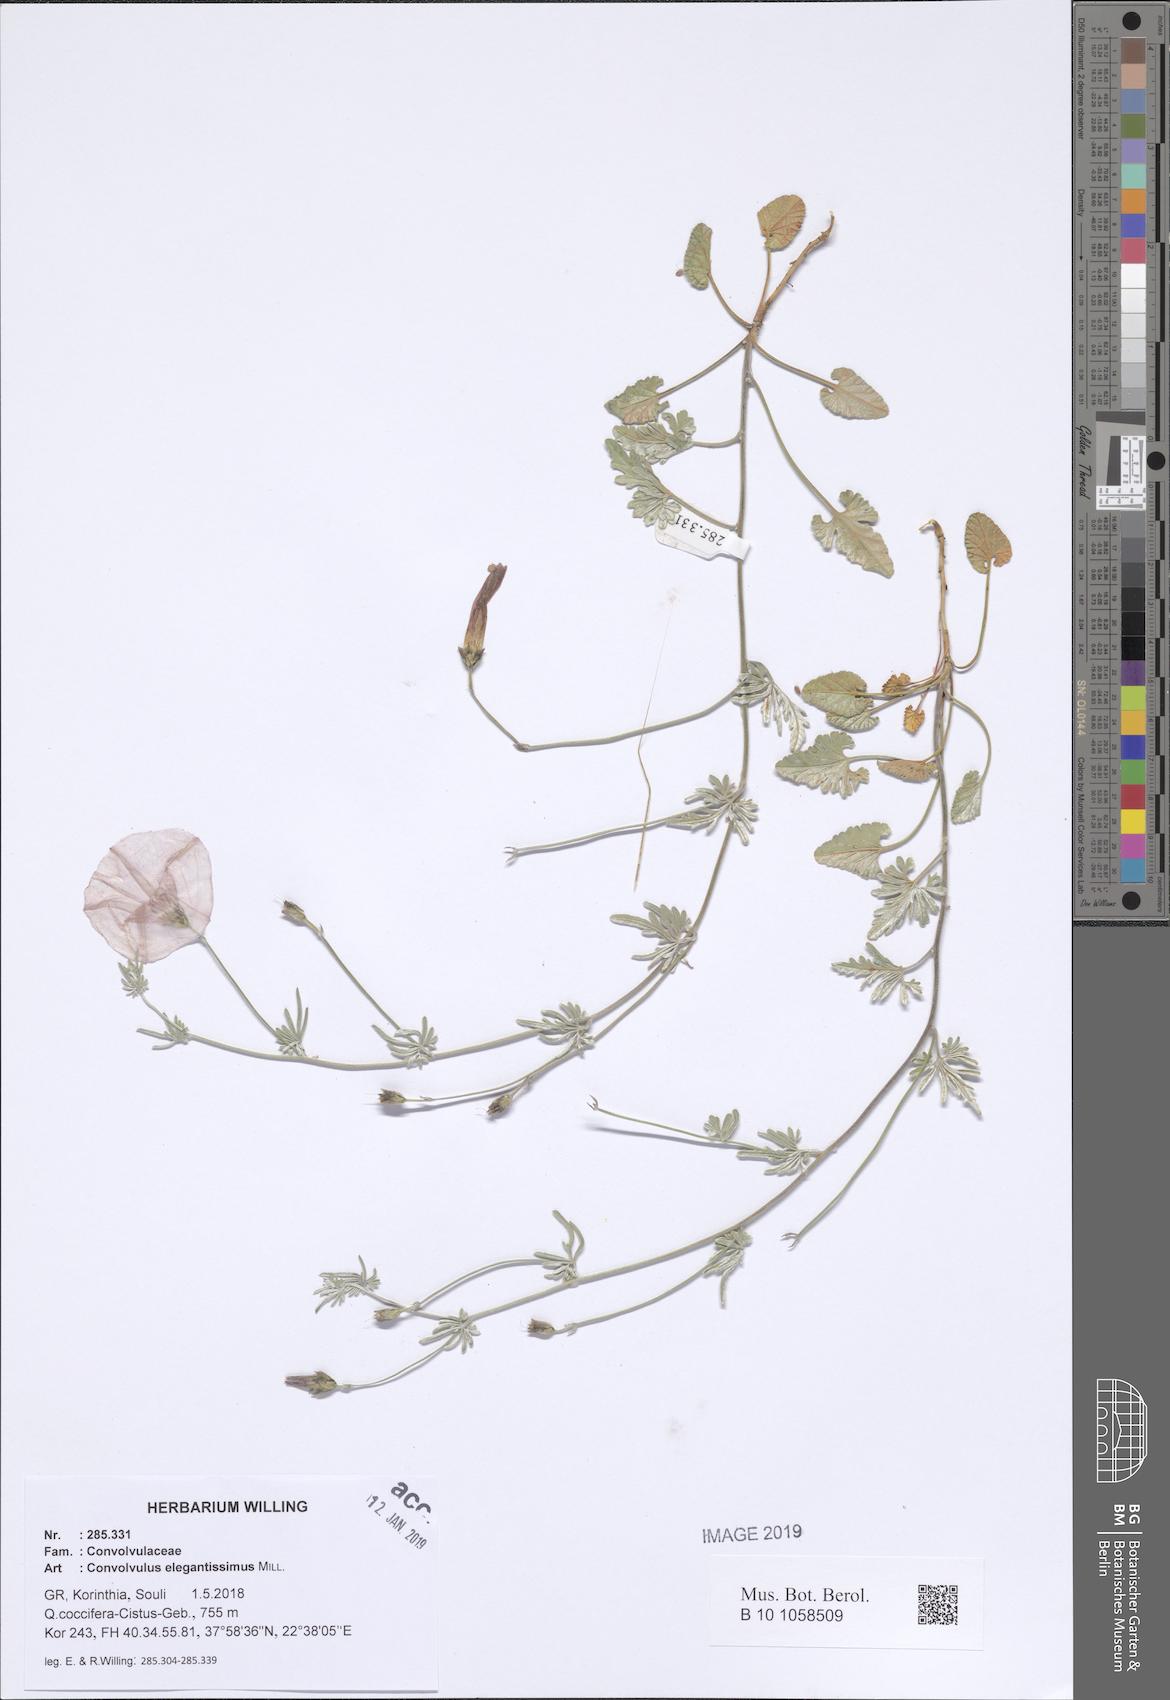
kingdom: Plantae
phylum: Tracheophyta
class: Magnoliopsida
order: Solanales
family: Convolvulaceae
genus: Convolvulus
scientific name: Convolvulus elegantissimus
